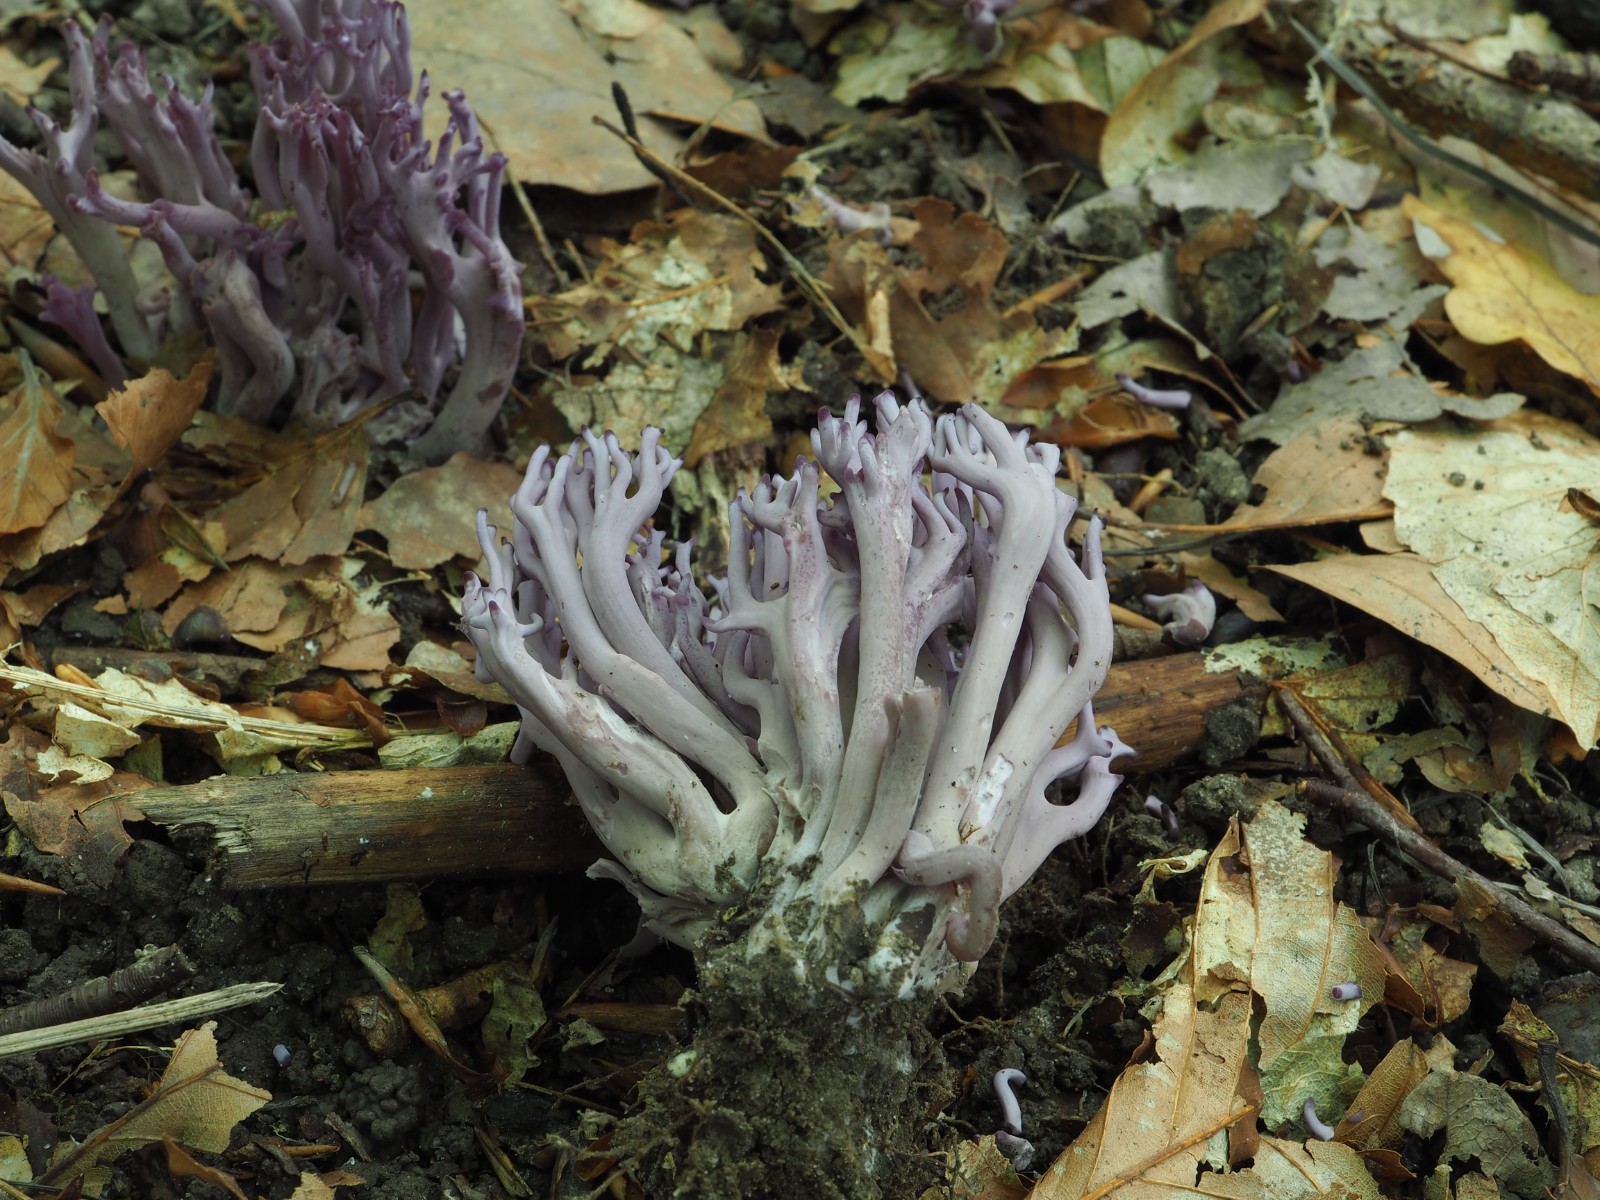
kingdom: Fungi
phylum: Basidiomycota
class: Agaricomycetes
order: Agaricales
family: Clavariaceae
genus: Clavaria
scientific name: Clavaria zollingeri
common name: purpur-køllesvamp
